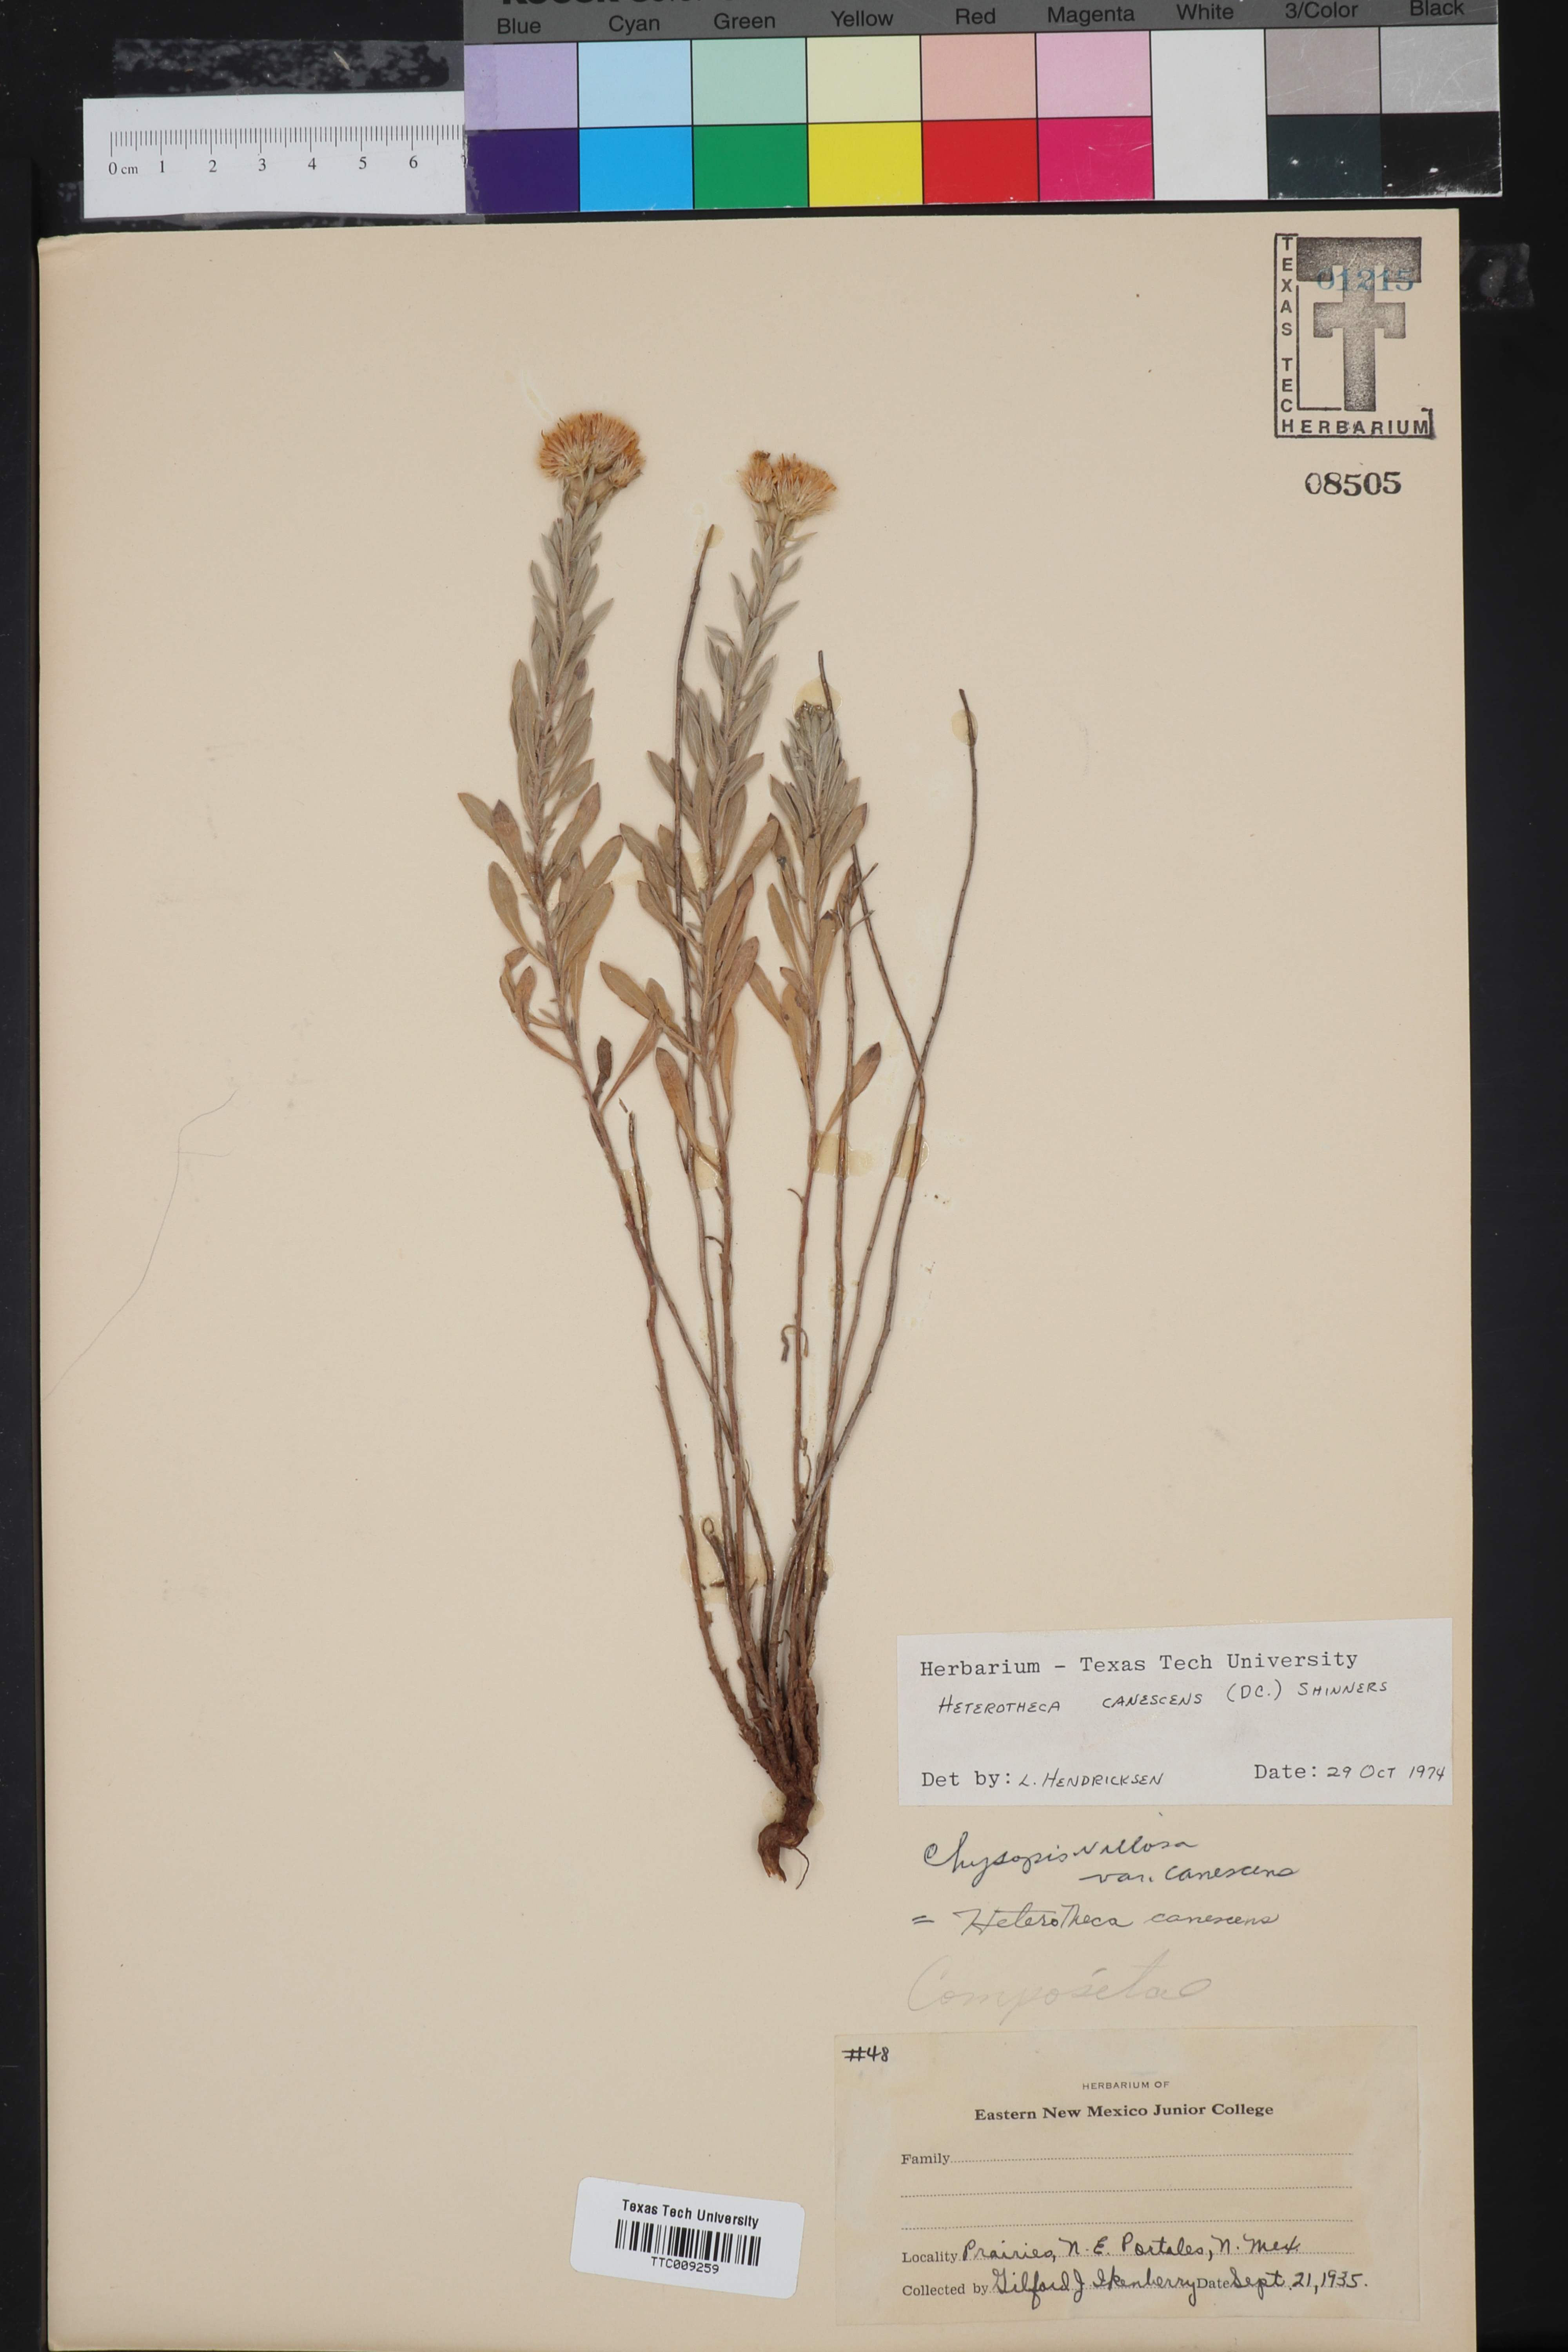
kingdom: Plantae
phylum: Tracheophyta
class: Magnoliopsida
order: Asterales
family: Asteraceae
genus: Heterotheca
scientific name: Heterotheca canescens
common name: Hoary golden-aster
